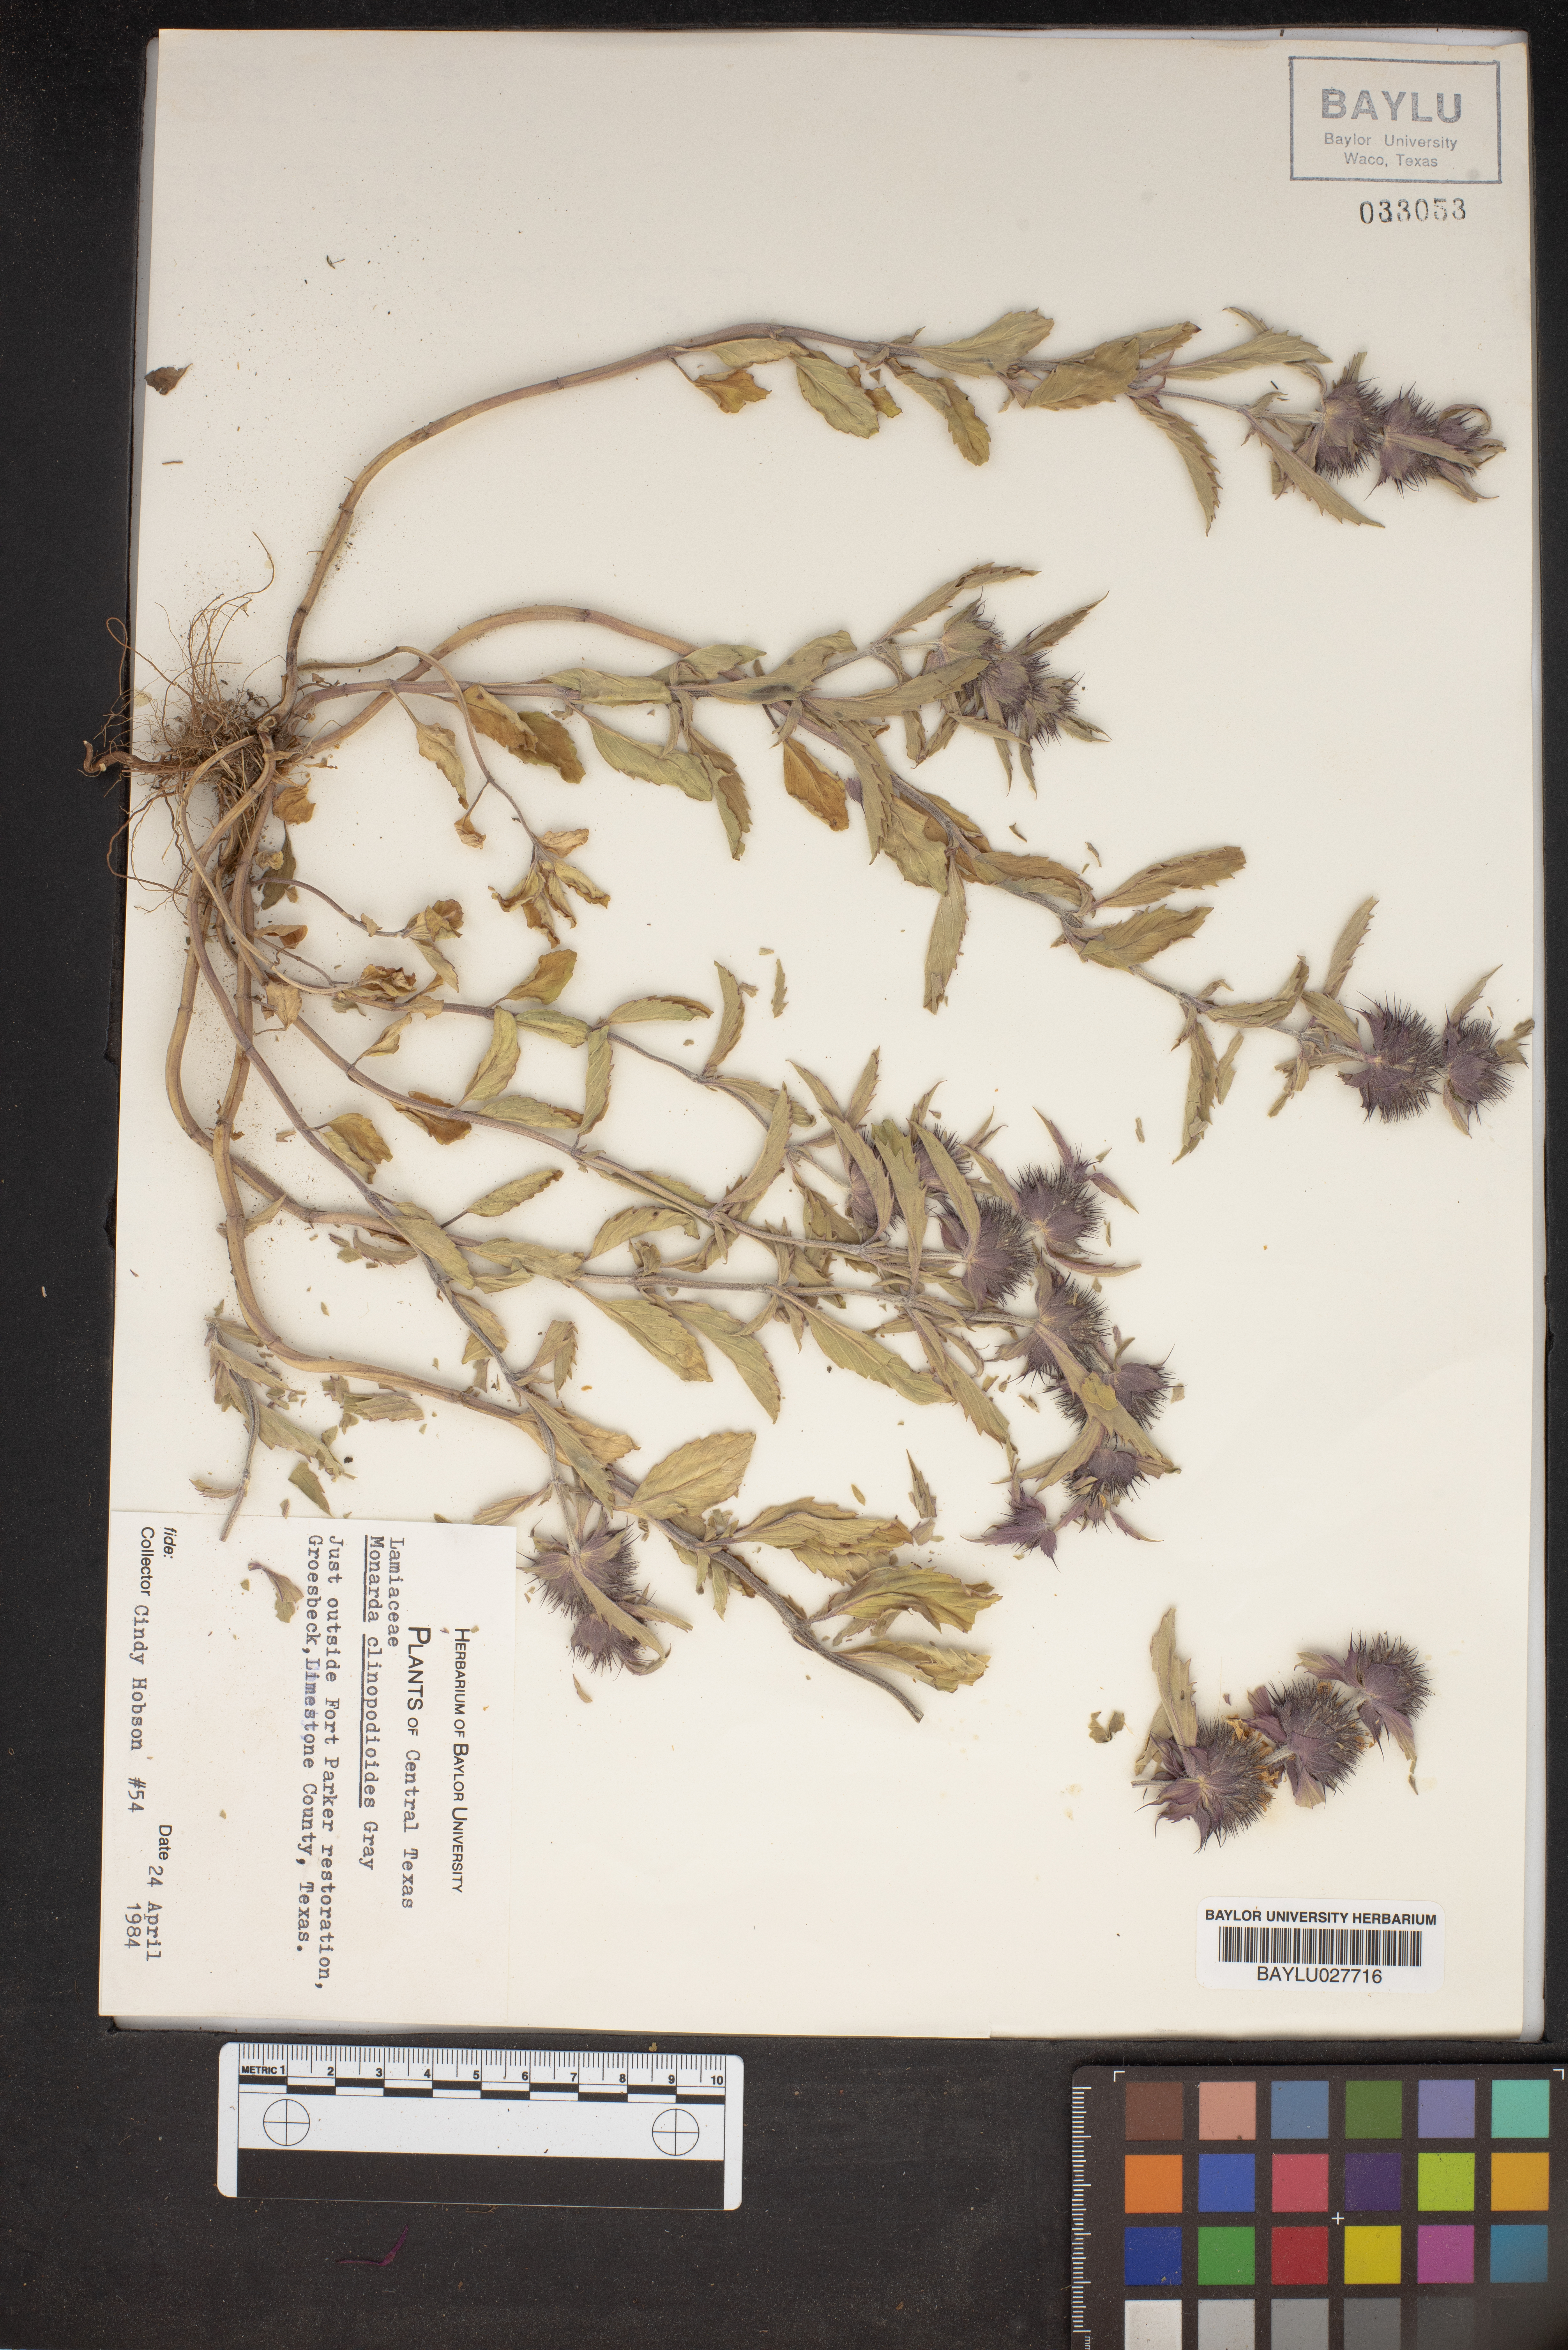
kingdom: Plantae
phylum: Tracheophyta
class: Magnoliopsida
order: Lamiales
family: Lamiaceae
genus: Monarda
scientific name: Monarda clinopodioides
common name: Basil beebalm
